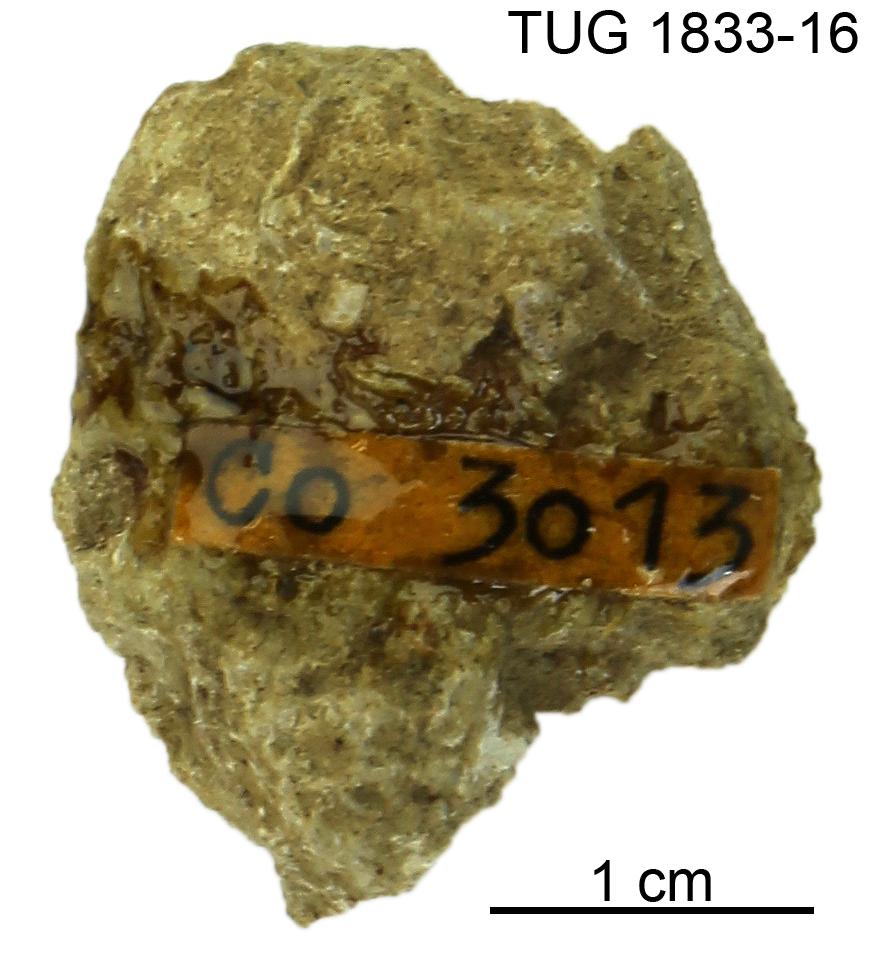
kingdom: Animalia
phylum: Porifera
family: Stylostromatidae
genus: Pachystylostroma
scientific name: Pachystylostroma Stromatopora ungerni
